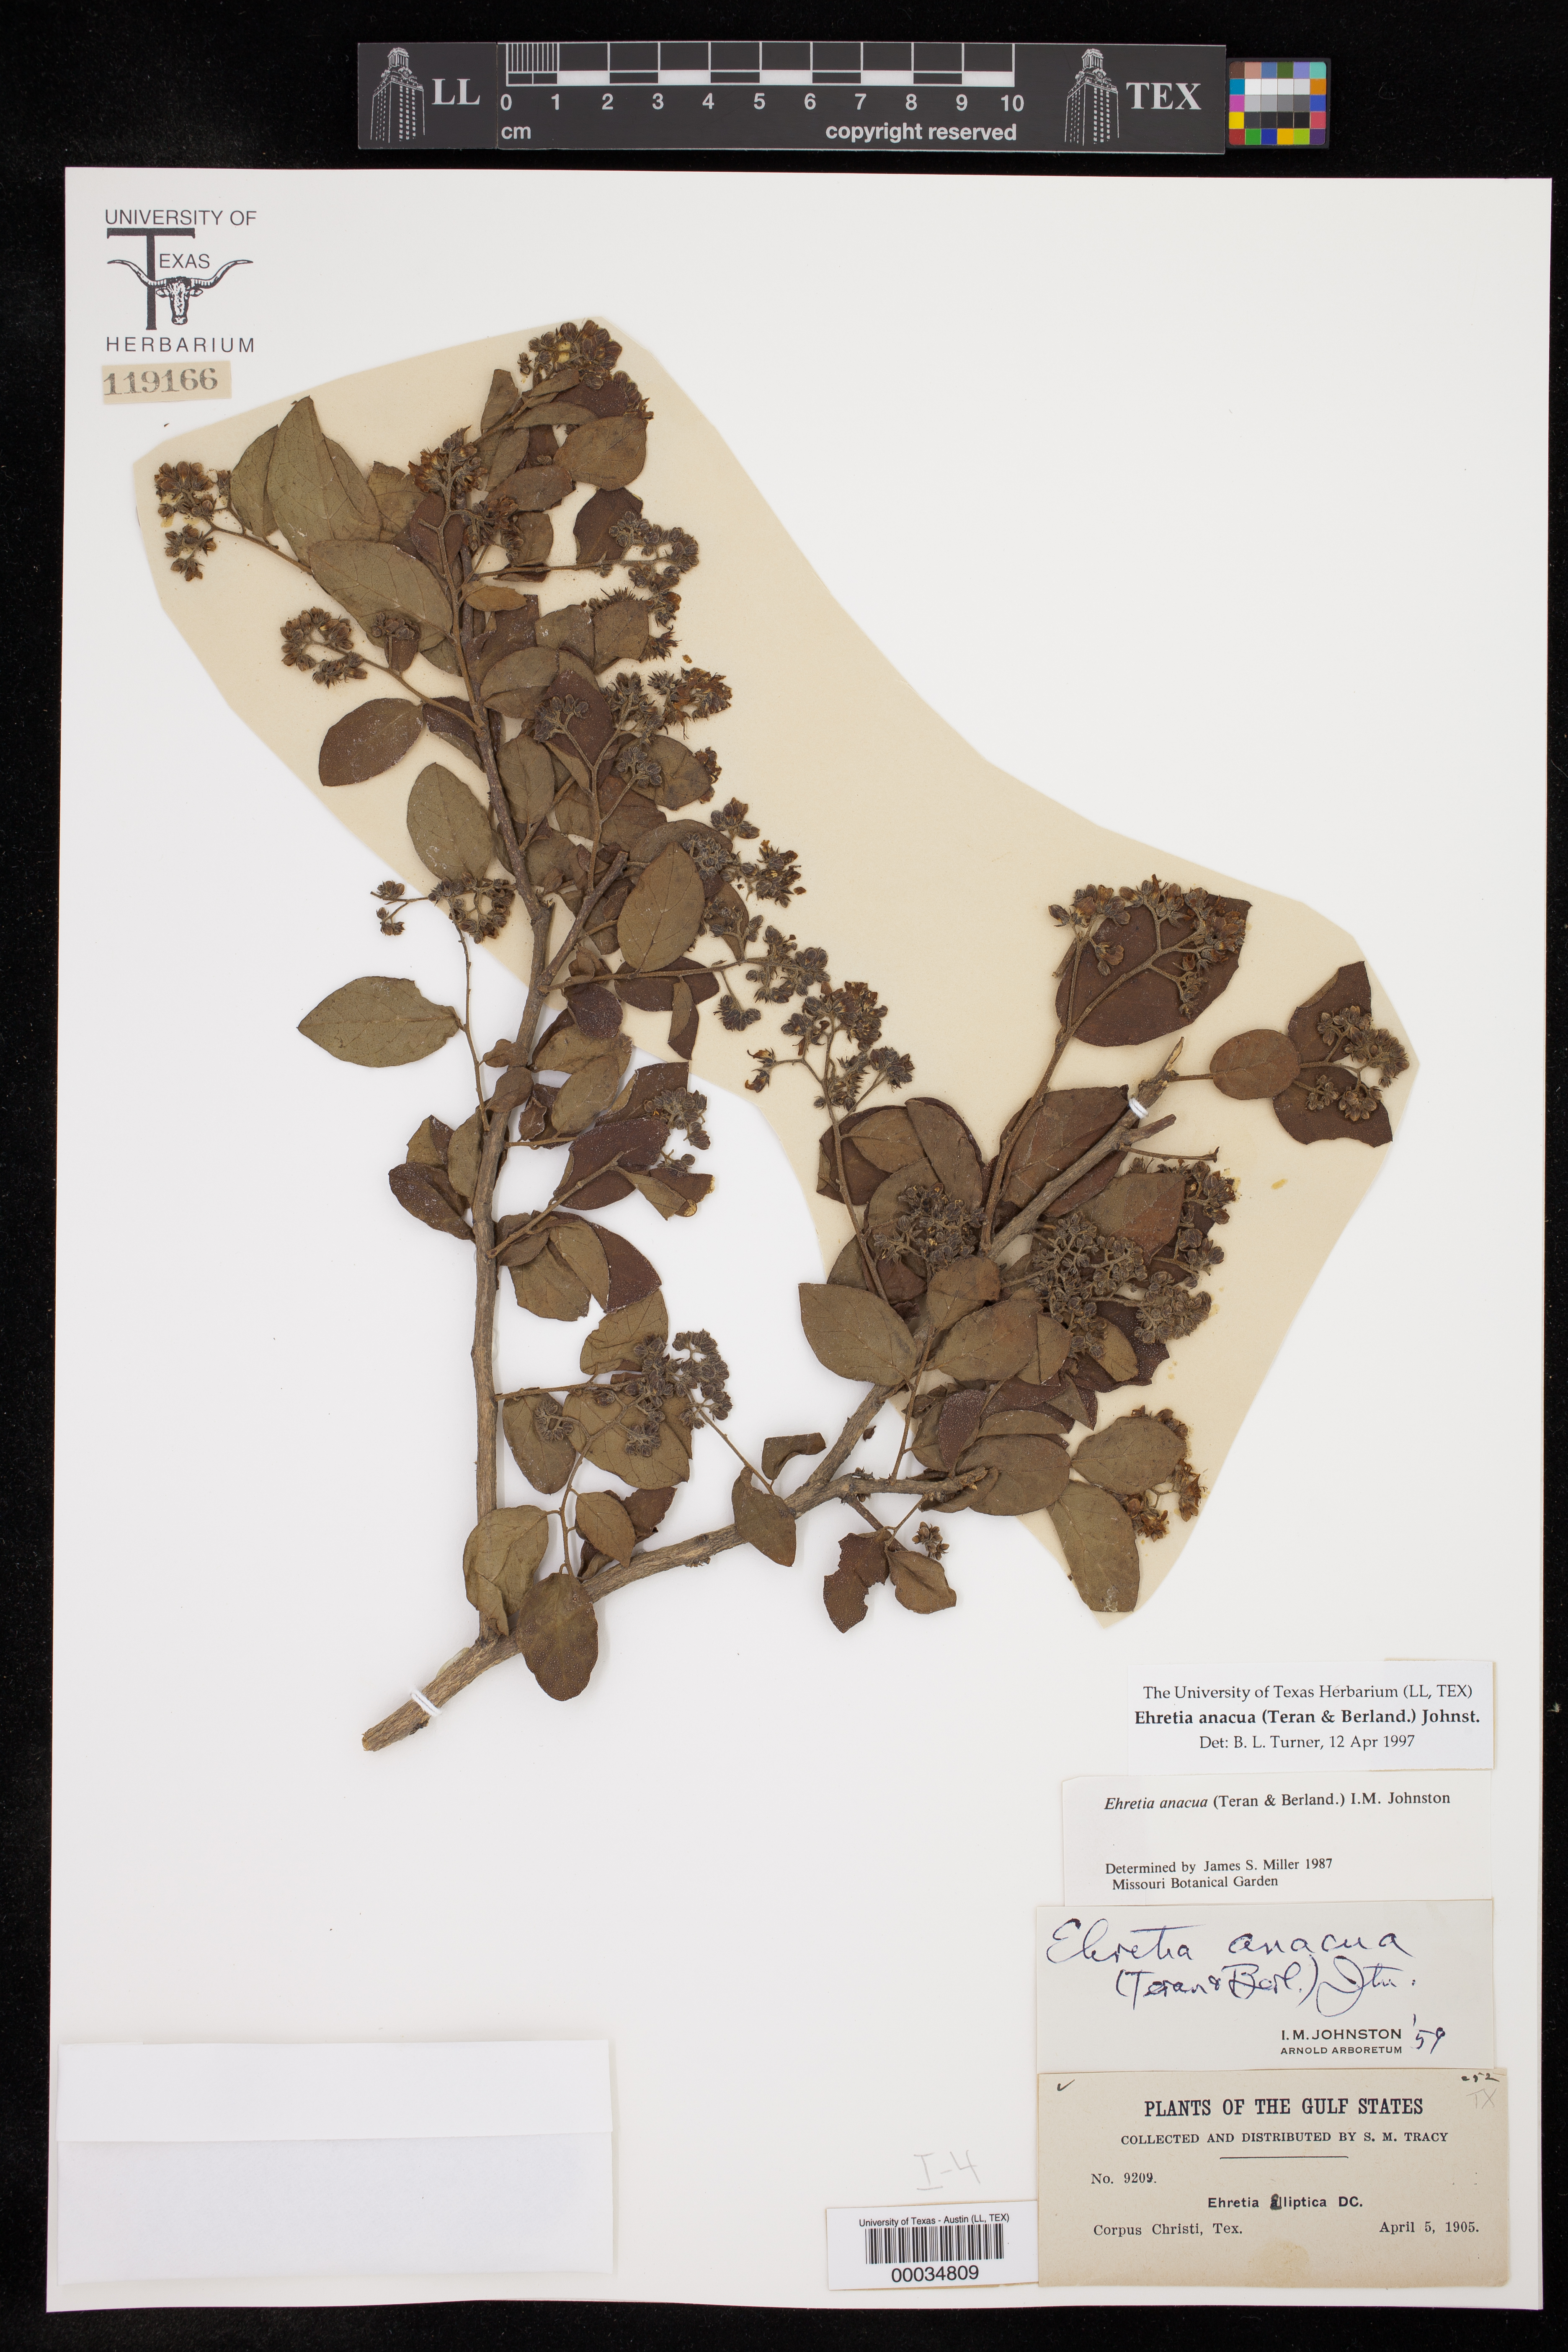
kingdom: Plantae
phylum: Tracheophyta
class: Magnoliopsida
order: Boraginales
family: Ehretiaceae
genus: Ehretia
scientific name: Ehretia anacua
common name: Sugarberry
